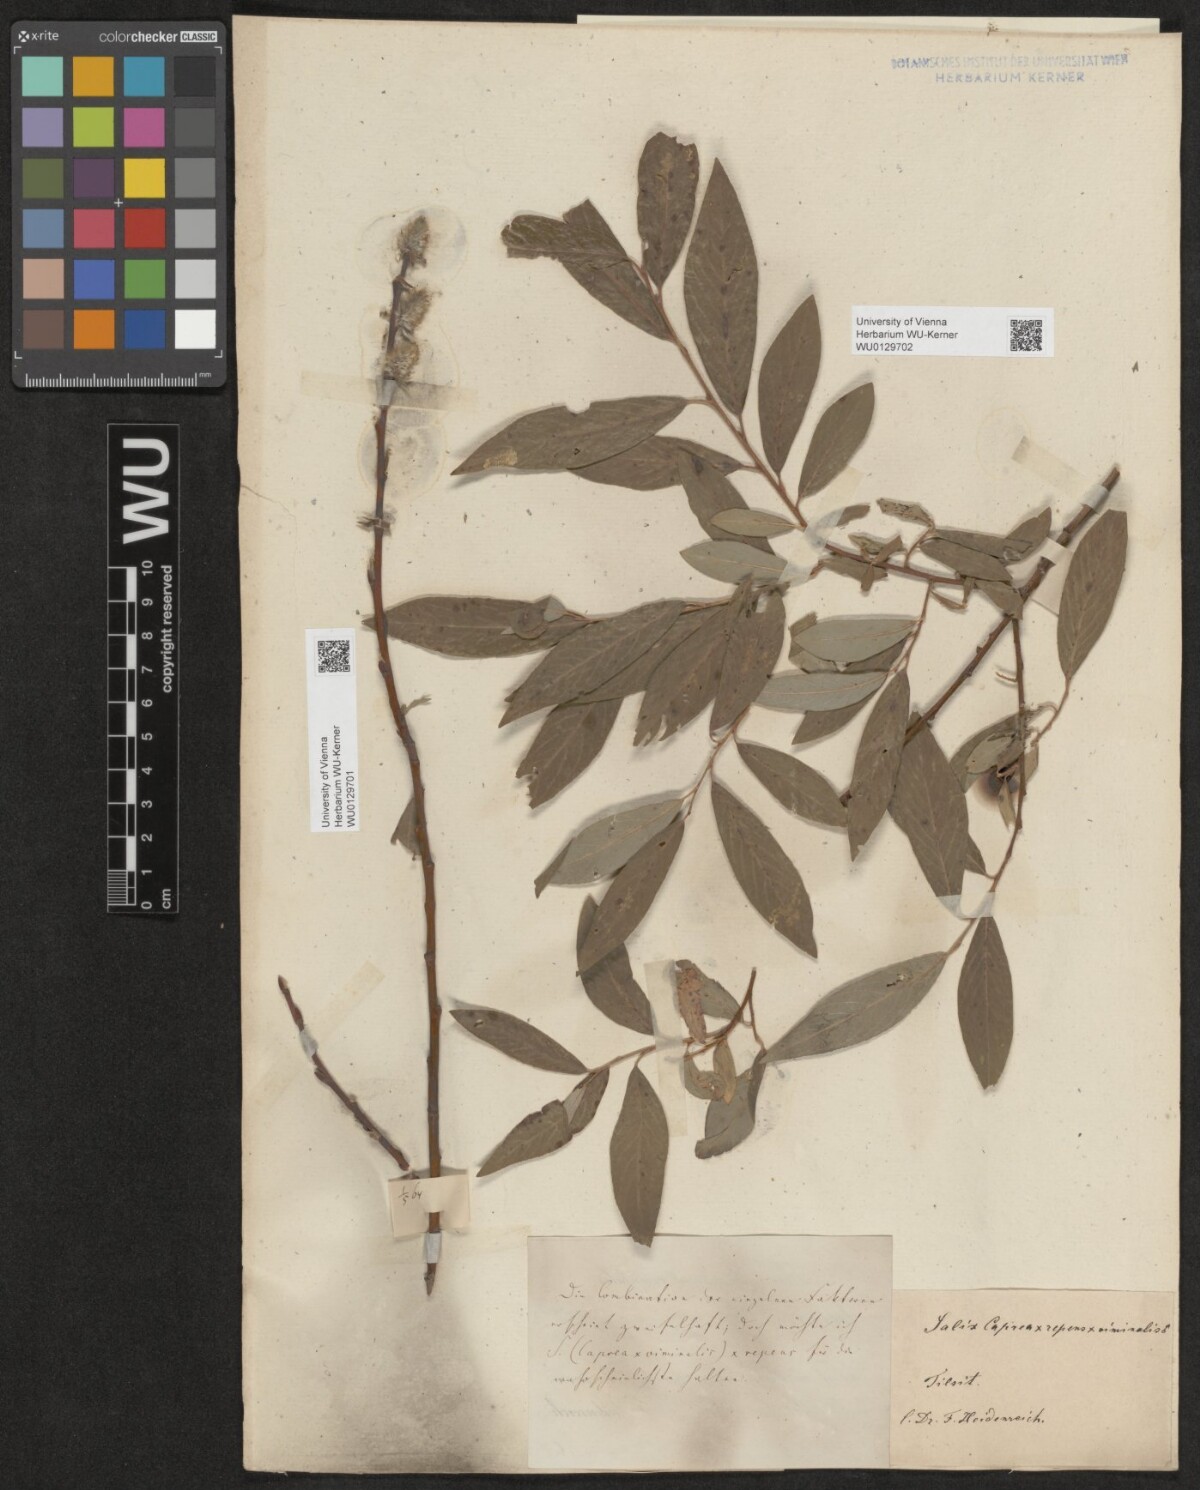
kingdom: Plantae
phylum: Tracheophyta
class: Magnoliopsida
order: Malpighiales
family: Salicaceae
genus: Salix
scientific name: Salix
